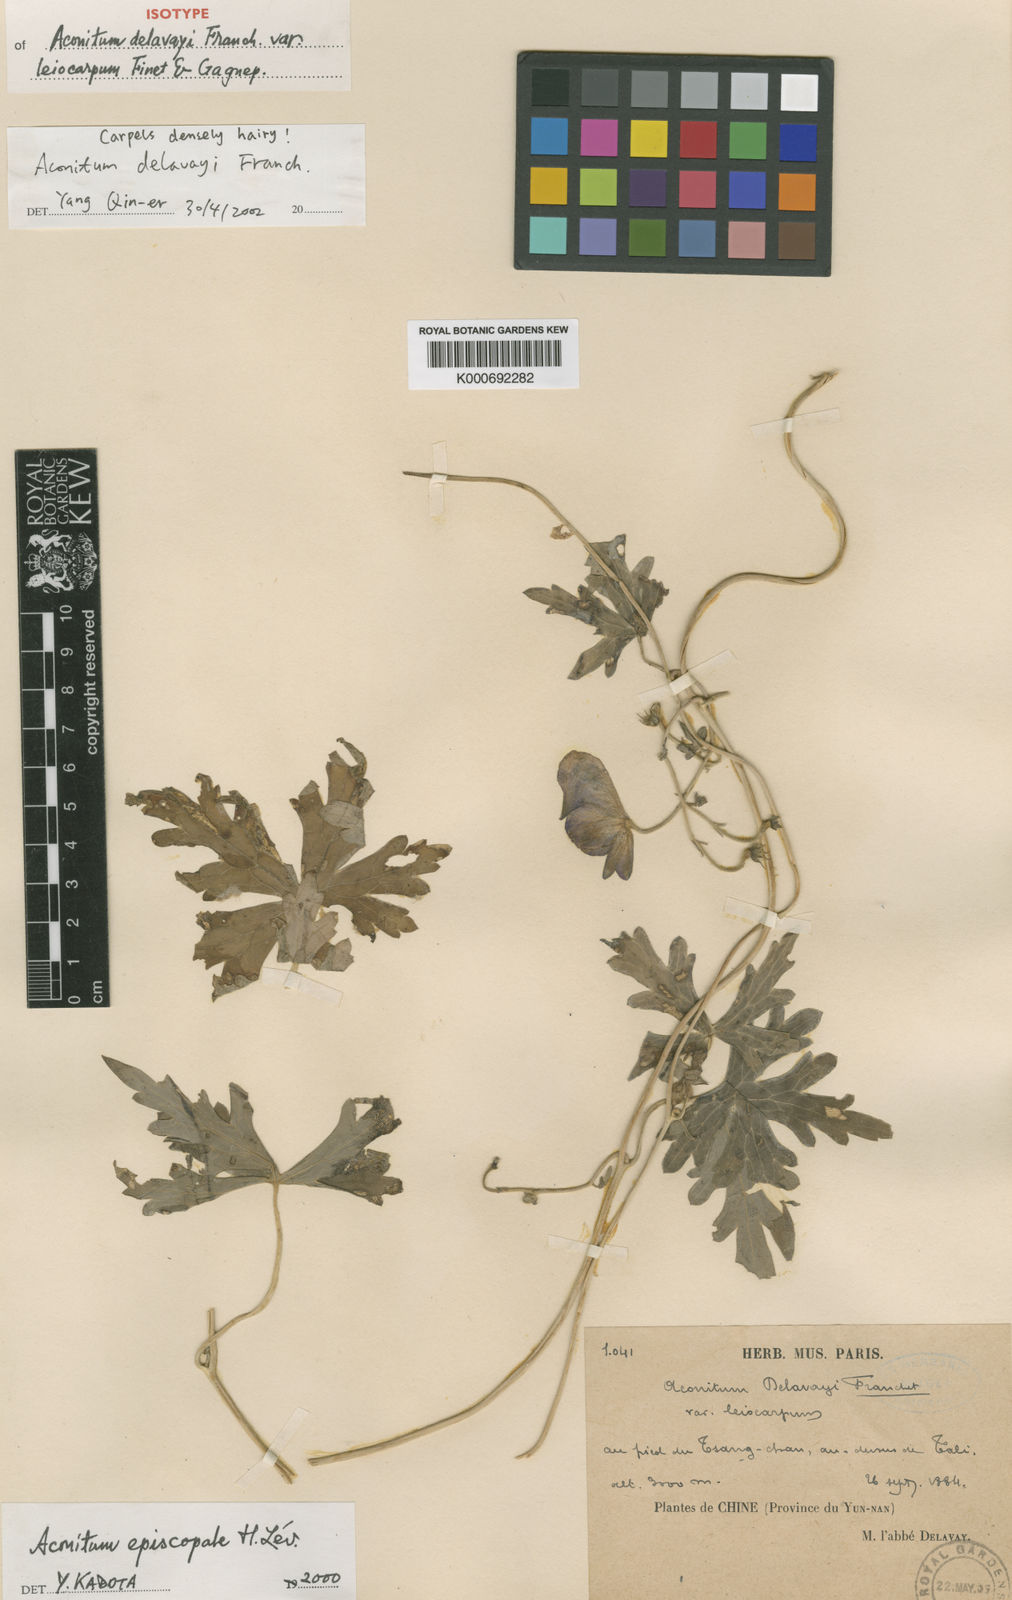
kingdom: Plantae
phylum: Tracheophyta
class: Magnoliopsida
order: Ranunculales
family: Ranunculaceae
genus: Aconitum
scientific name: Aconitum delavayi
